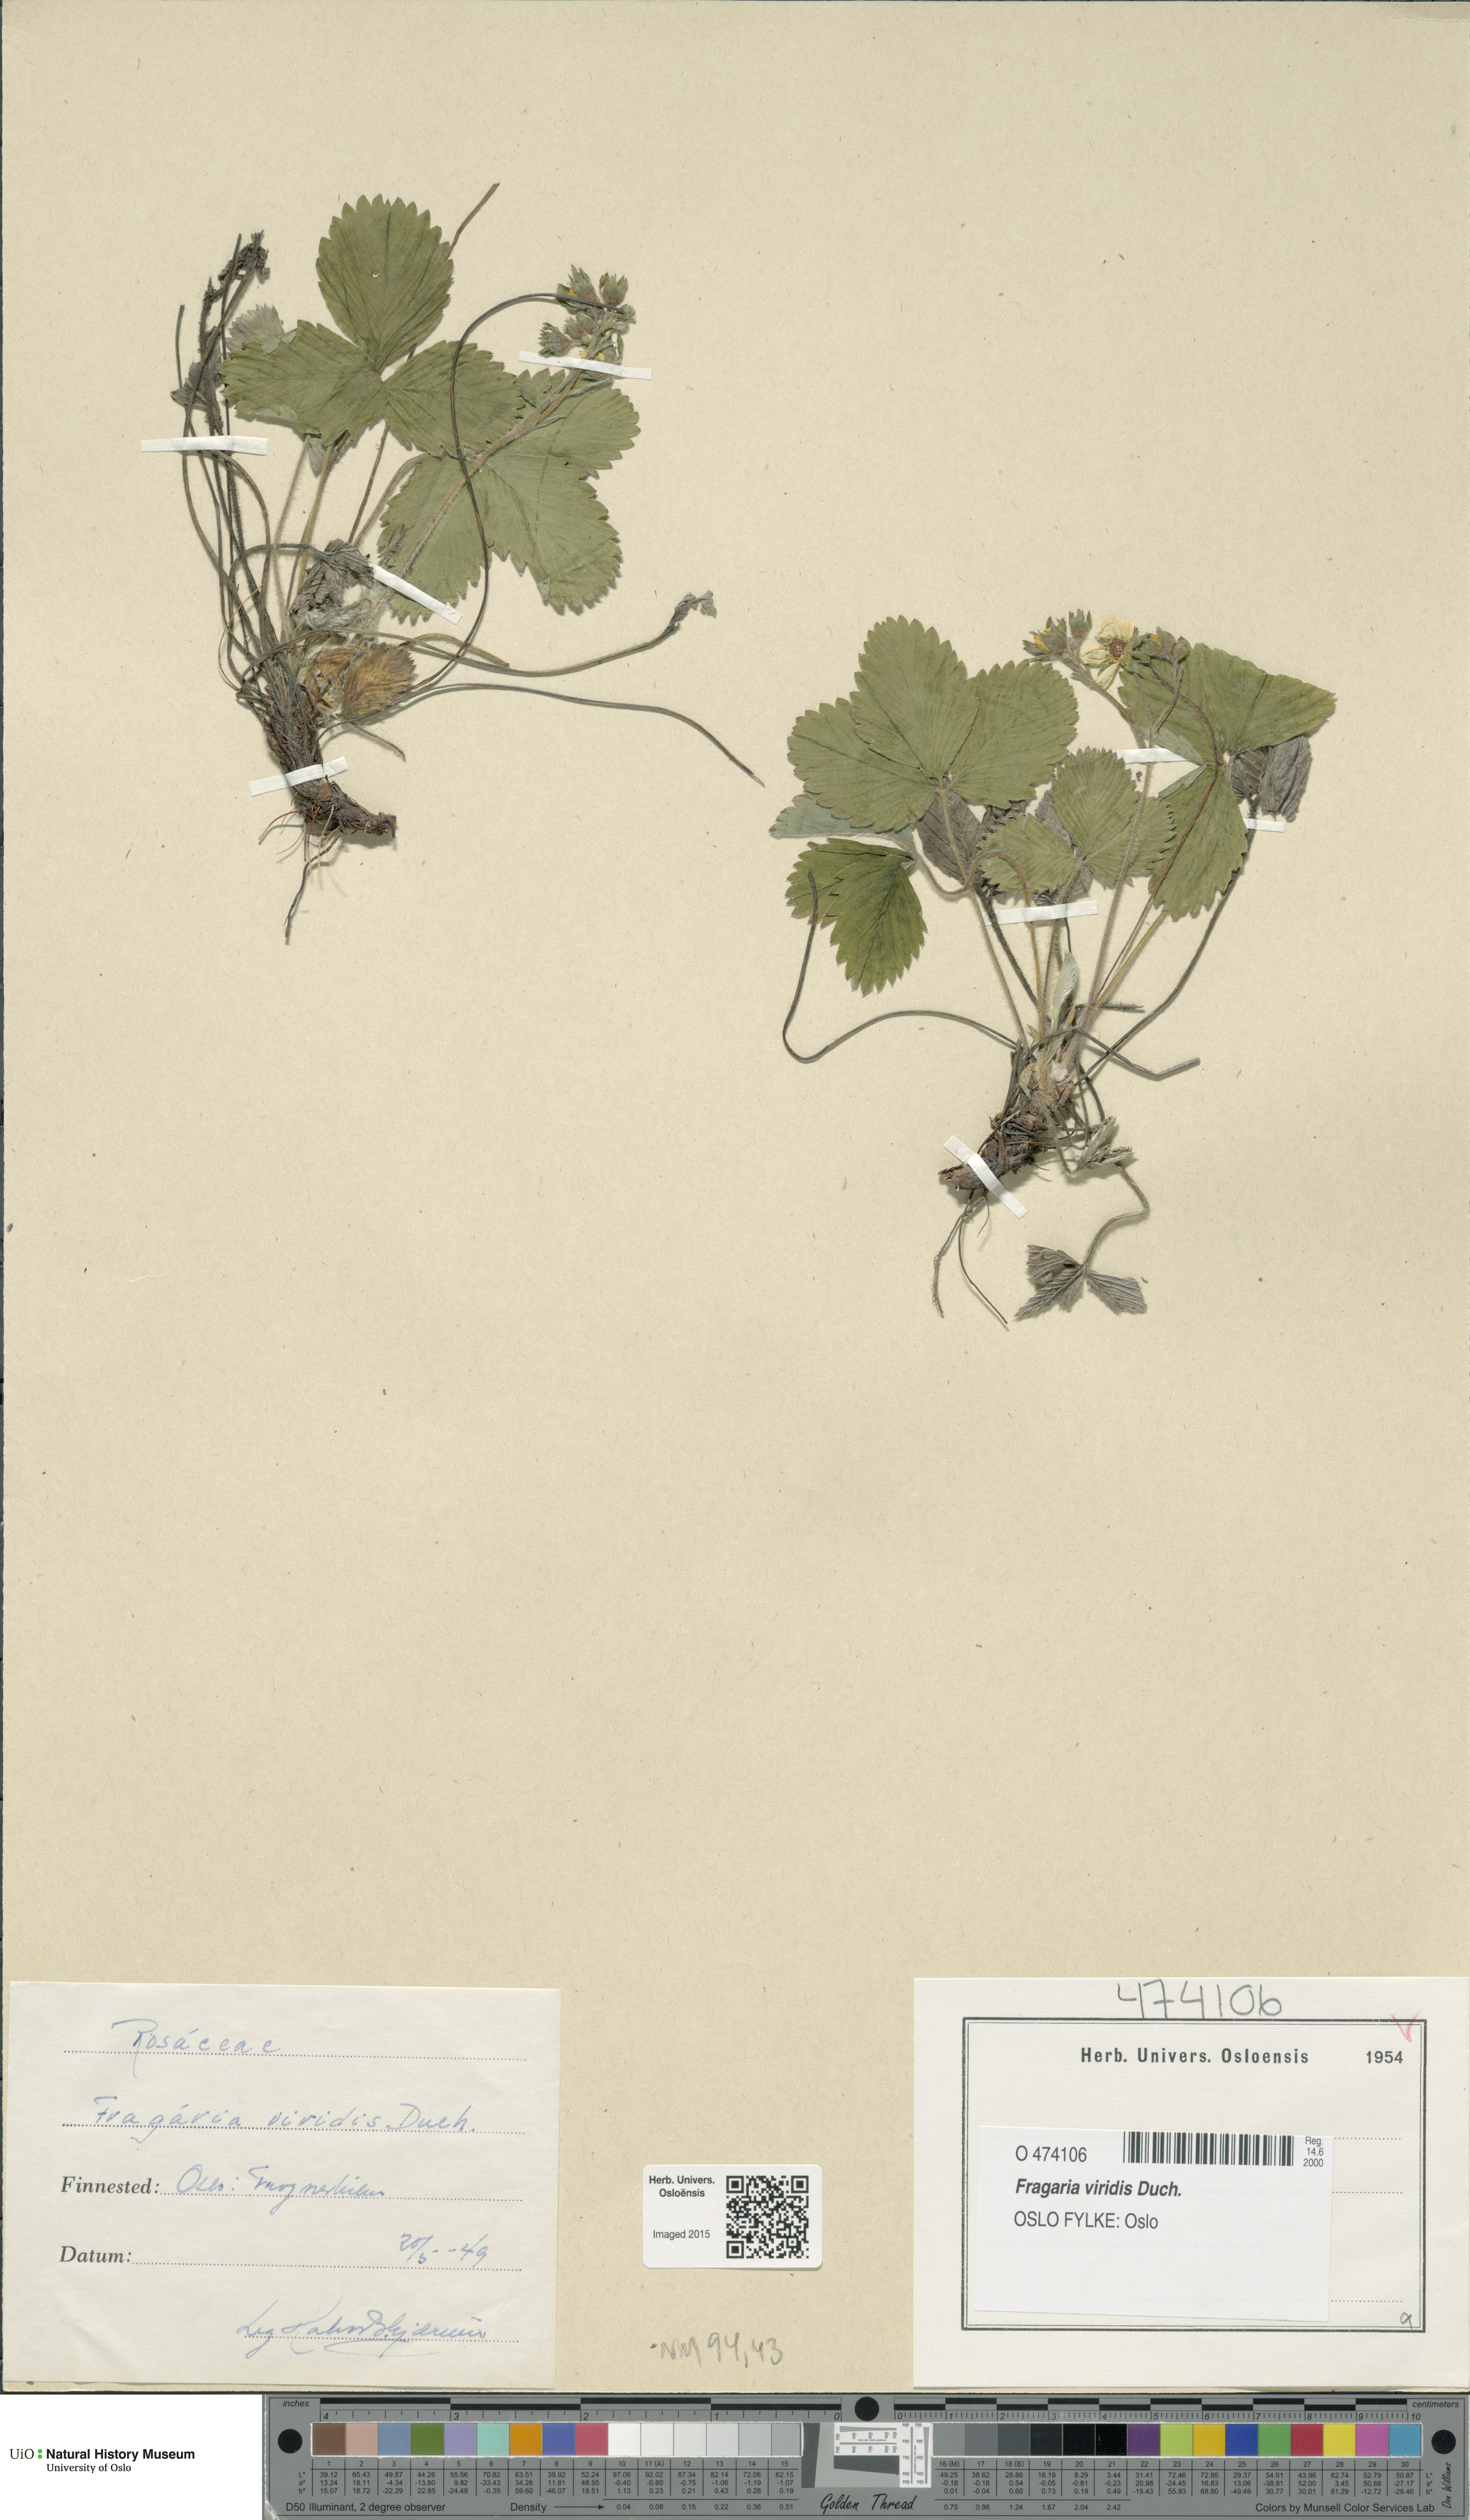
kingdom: Plantae
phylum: Tracheophyta
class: Magnoliopsida
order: Rosales
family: Rosaceae
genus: Fragaria
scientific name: Fragaria viridis
